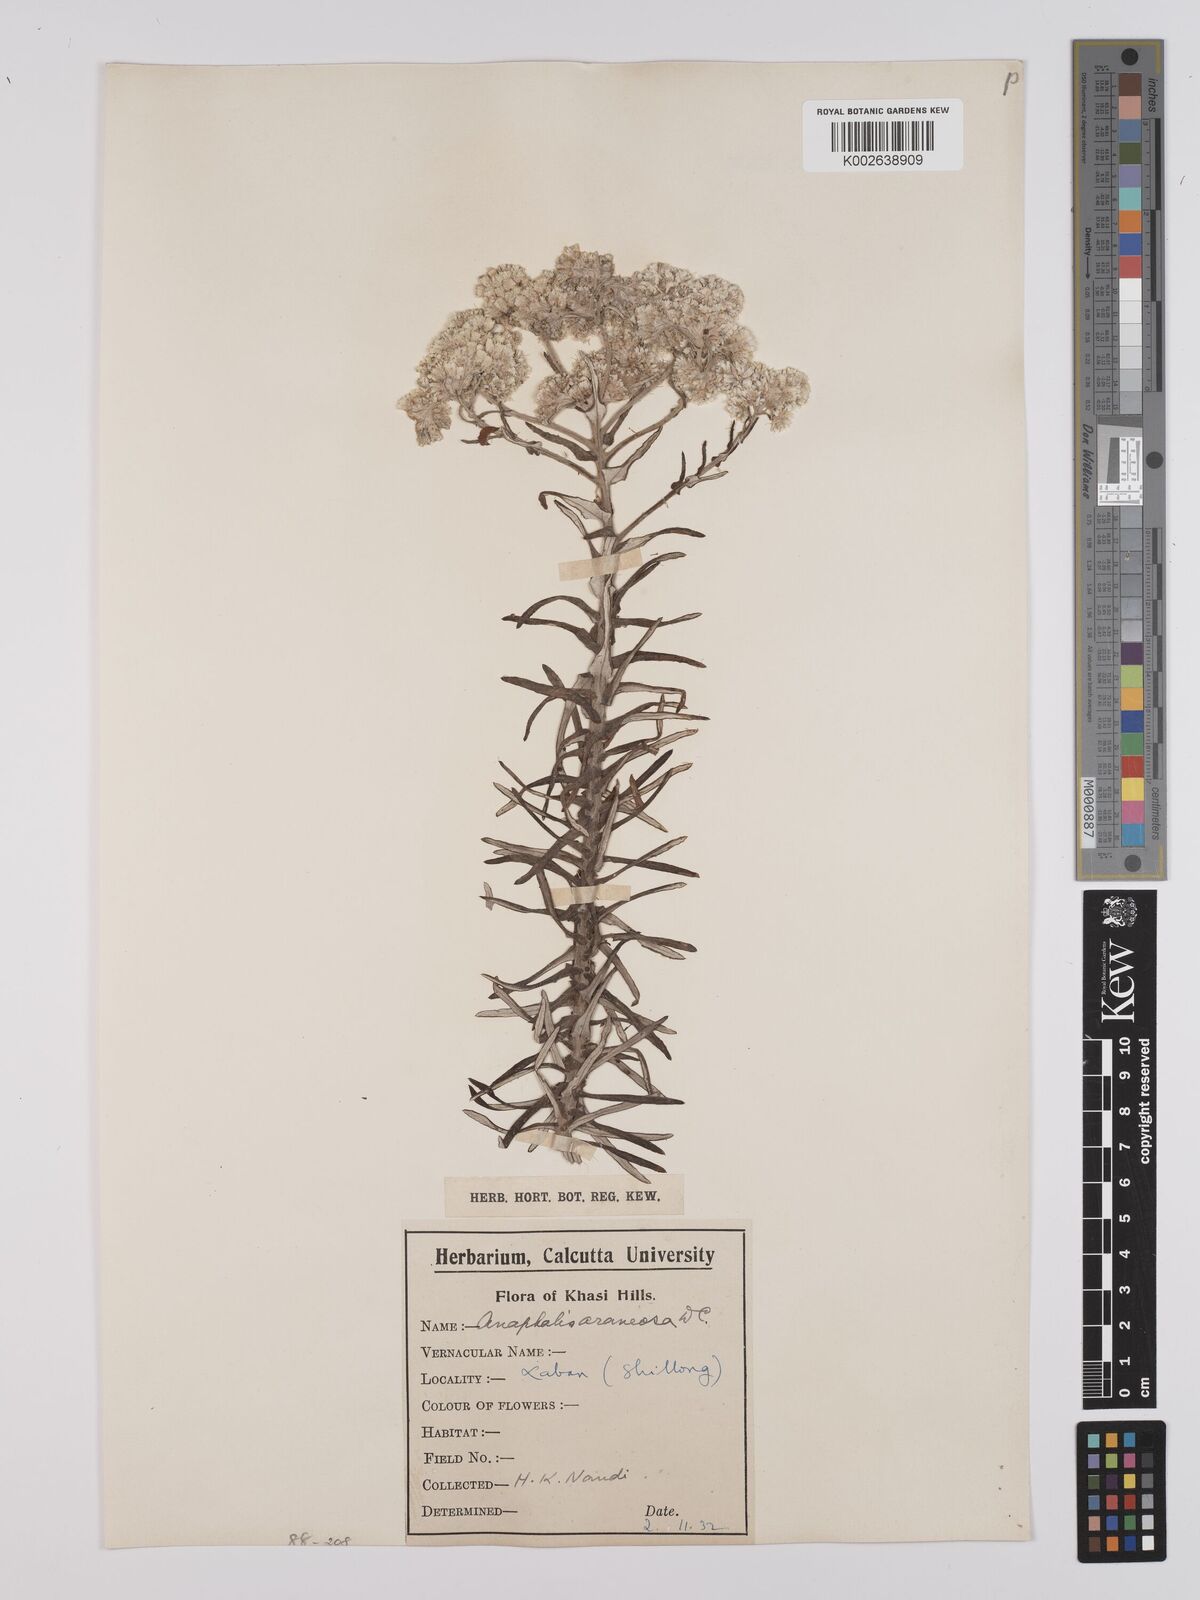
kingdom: Plantae
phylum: Tracheophyta
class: Magnoliopsida
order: Asterales
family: Asteraceae
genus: Anaphalis
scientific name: Anaphalis busua
